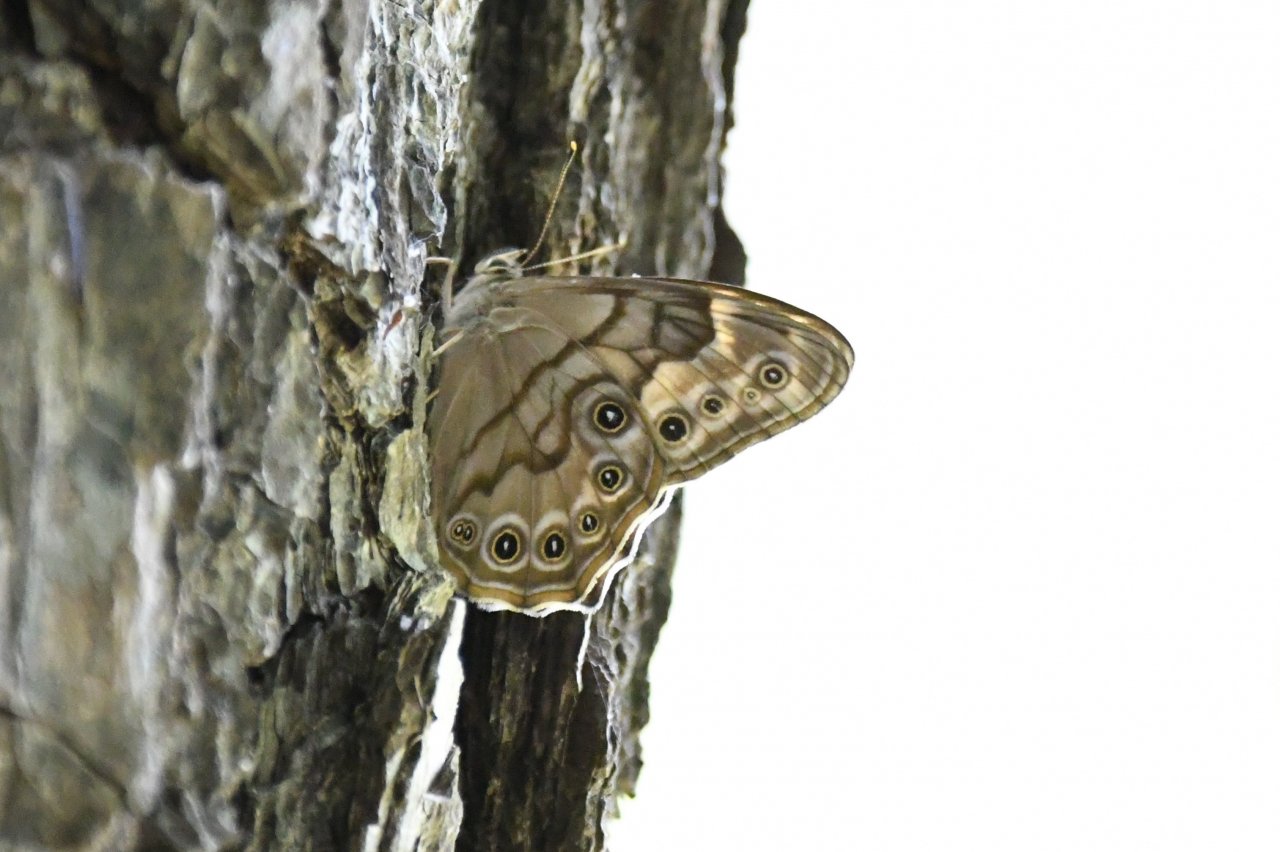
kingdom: Animalia
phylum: Arthropoda
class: Insecta
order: Lepidoptera
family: Nymphalidae
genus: Lethe
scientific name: Lethe anthedon
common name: Northern Pearly-Eye
